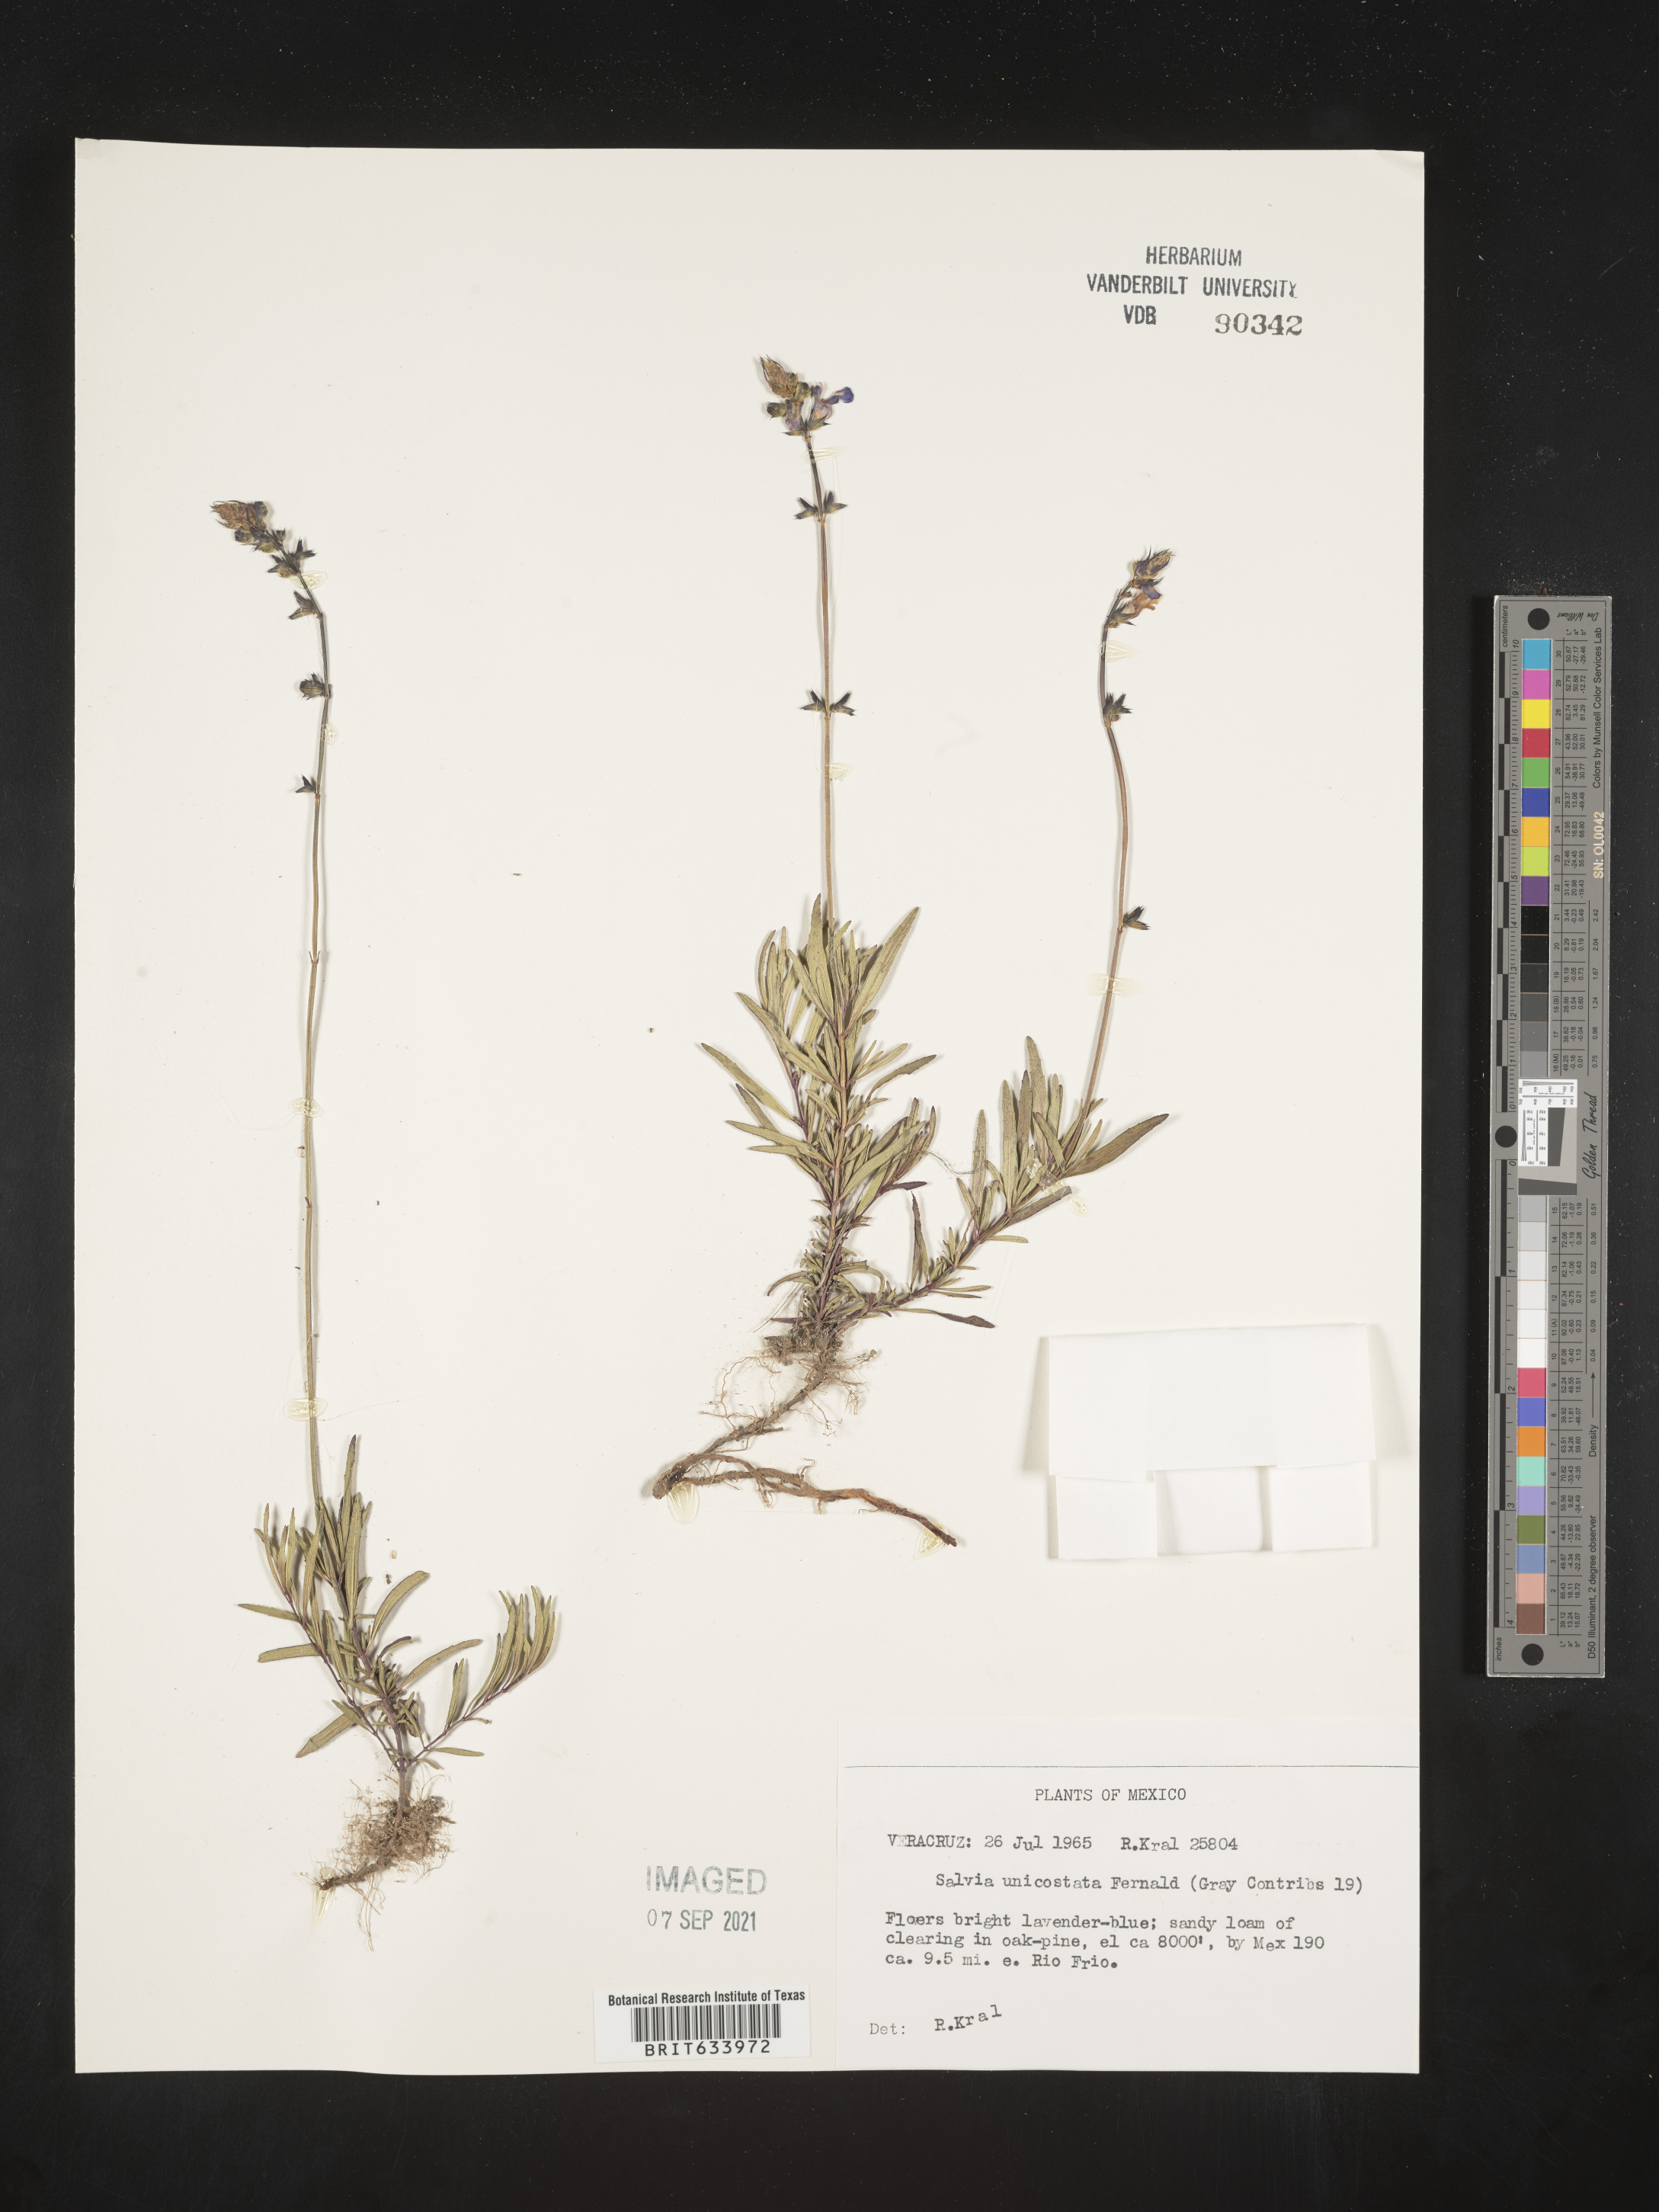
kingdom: Plantae
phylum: Tracheophyta
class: Magnoliopsida
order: Lamiales
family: Lamiaceae
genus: Salvia
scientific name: Salvia
